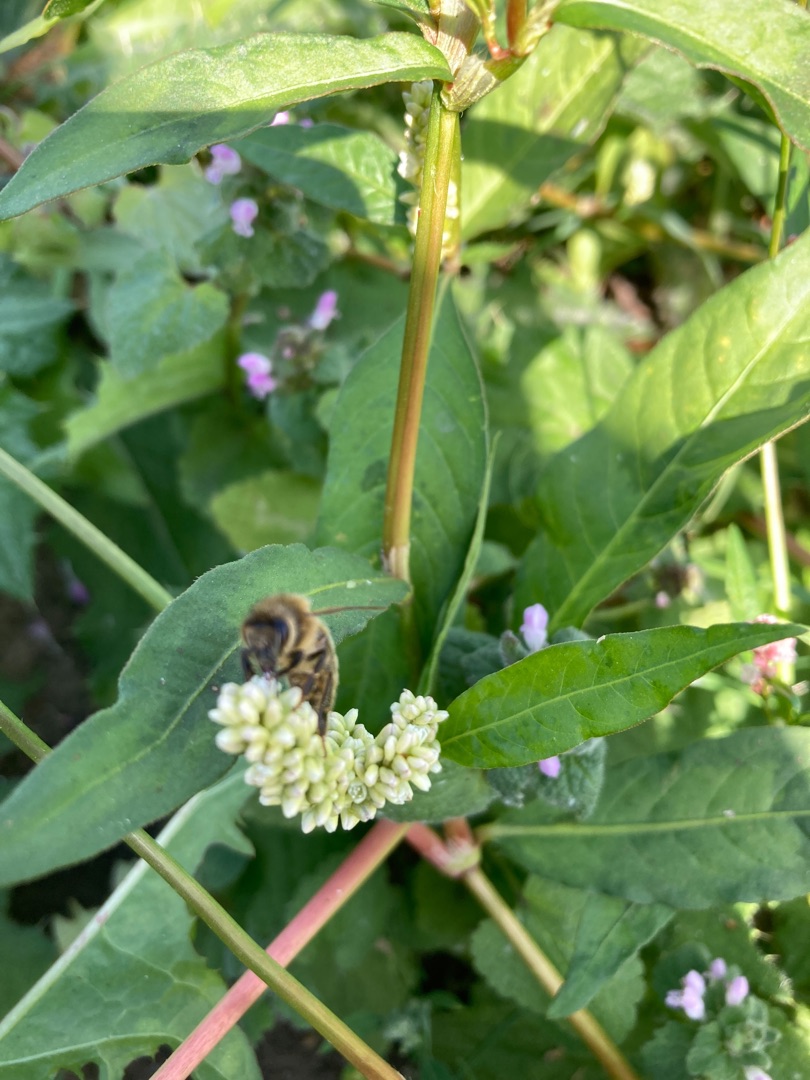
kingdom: Animalia
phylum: Arthropoda
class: Insecta
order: Hymenoptera
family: Apidae
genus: Apis
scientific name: Apis mellifera
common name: Honningbi
